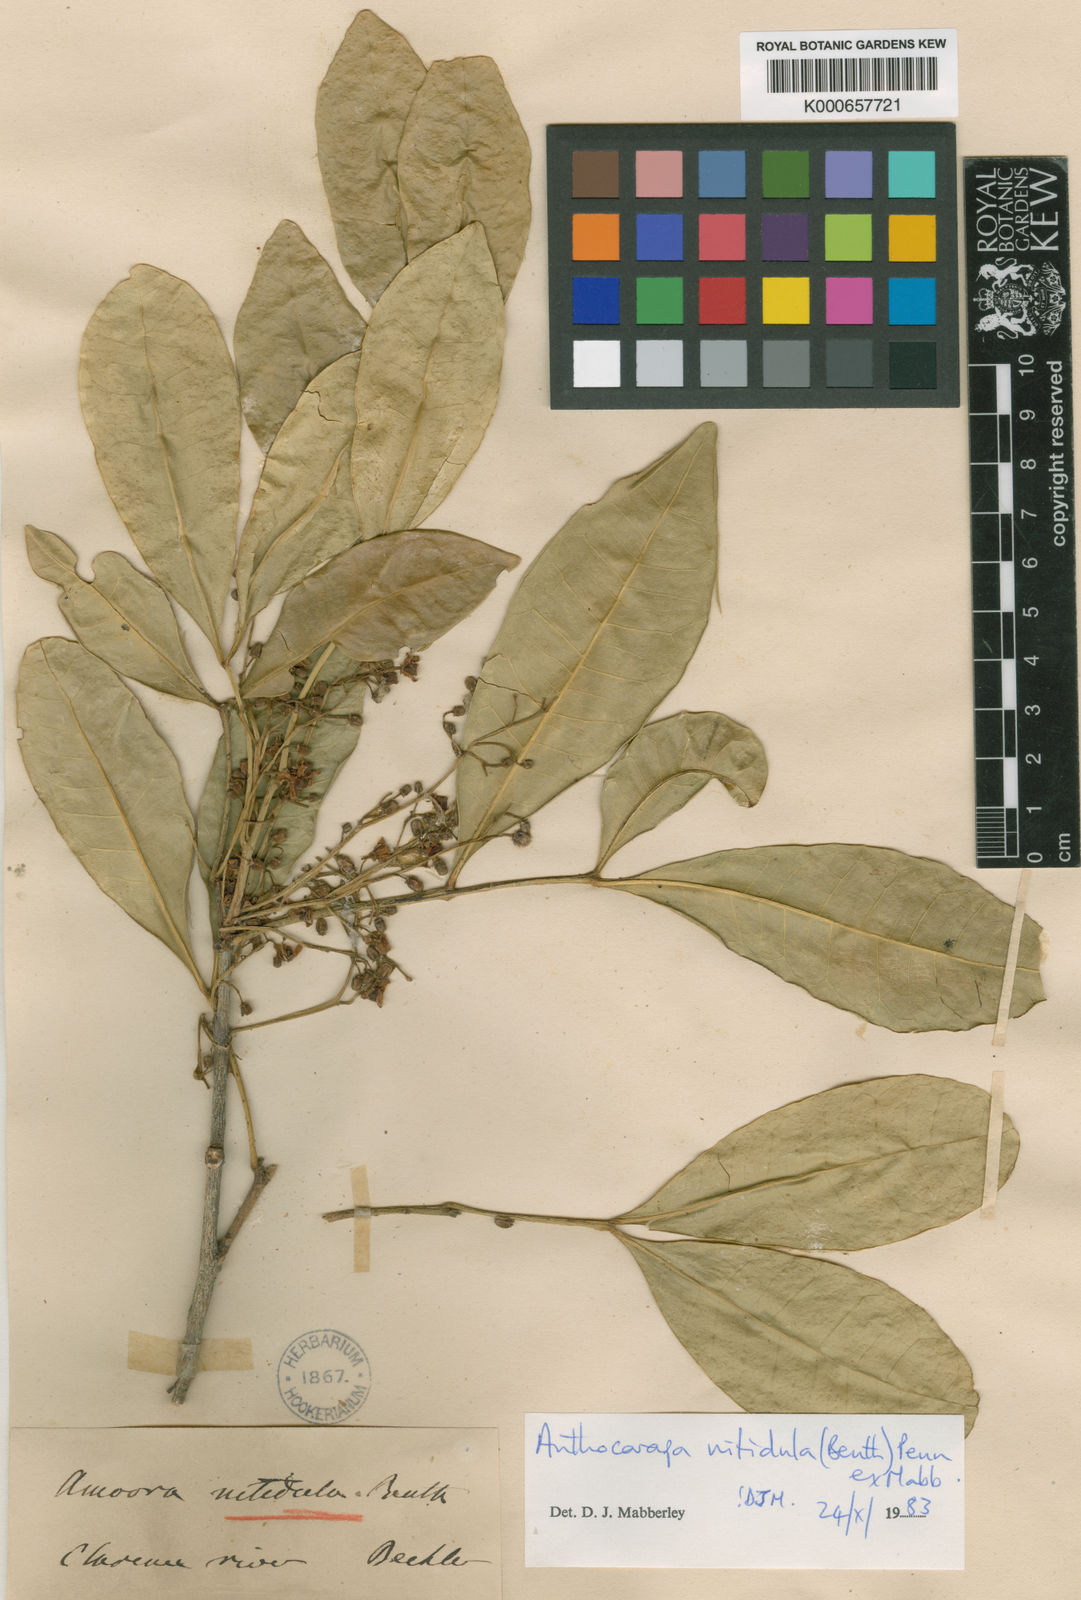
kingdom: Plantae
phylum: Tracheophyta
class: Magnoliopsida
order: Sapindales
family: Meliaceae
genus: Anthocarapa
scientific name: Anthocarapa nitidula
